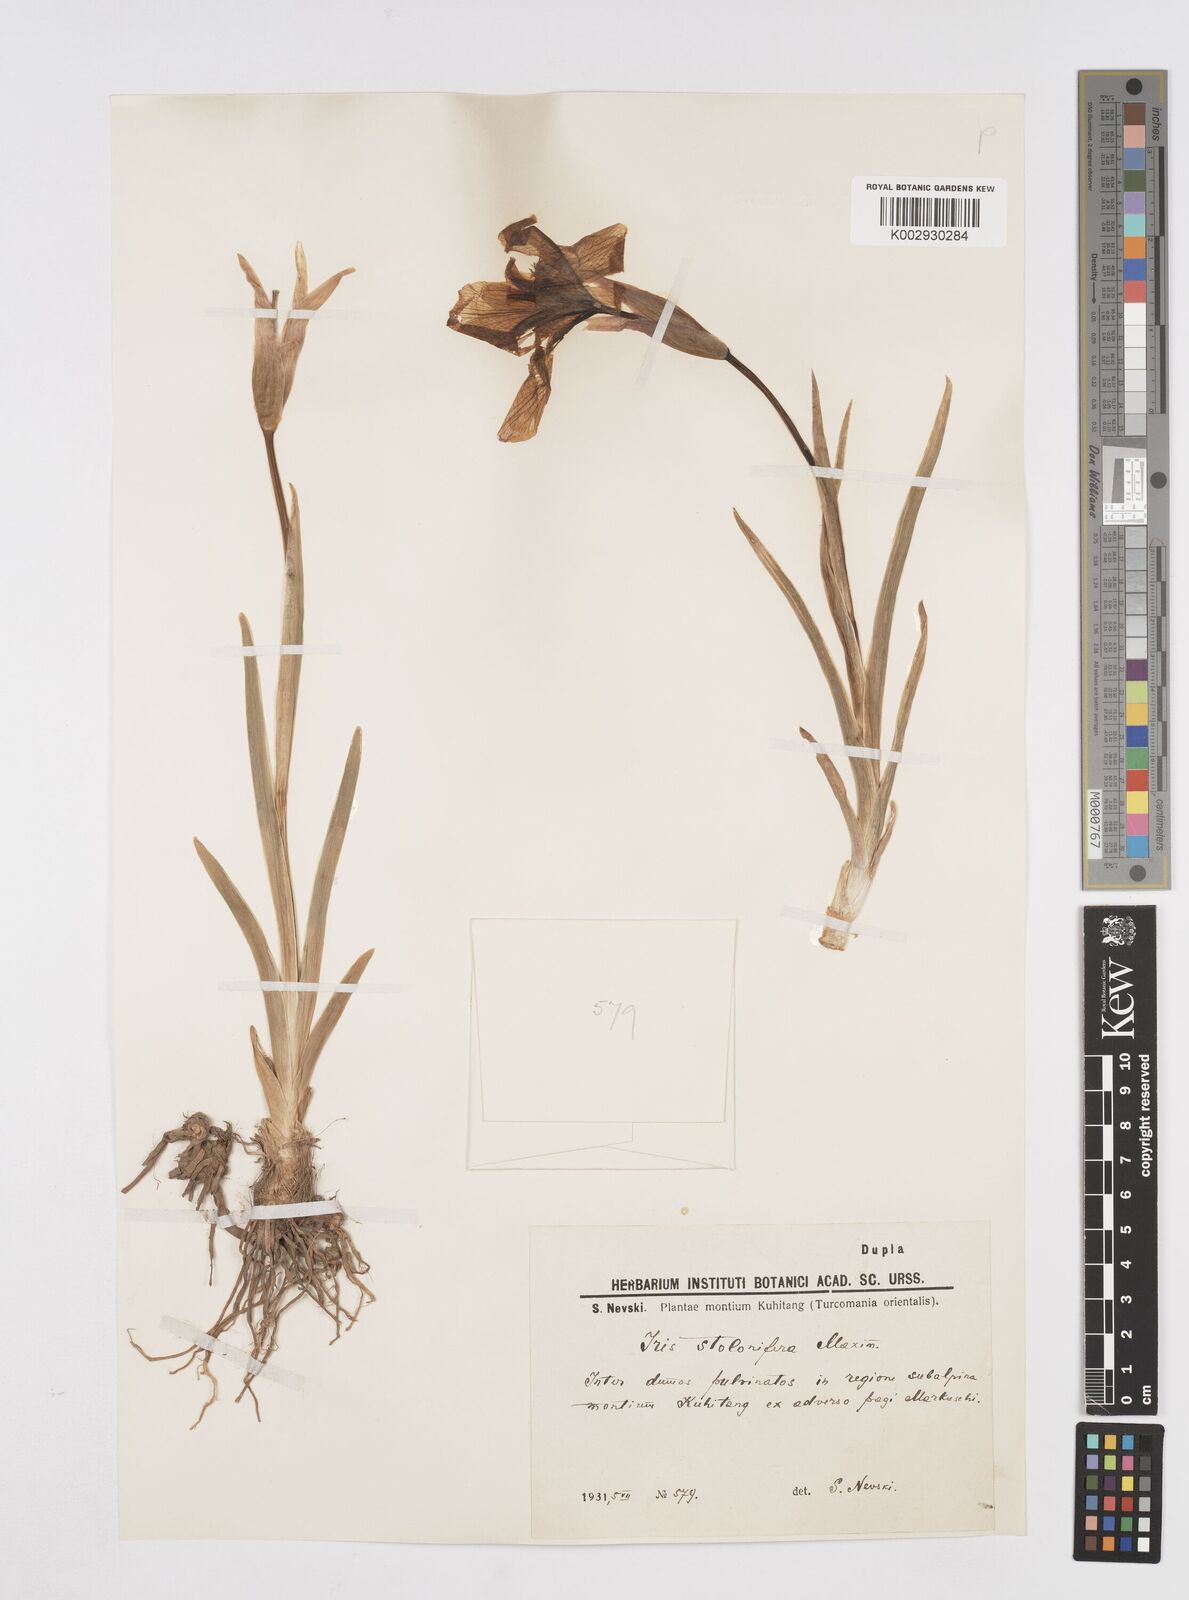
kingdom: Plantae
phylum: Tracheophyta
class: Liliopsida
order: Asparagales
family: Iridaceae
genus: Iris
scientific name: Iris stolonifera
